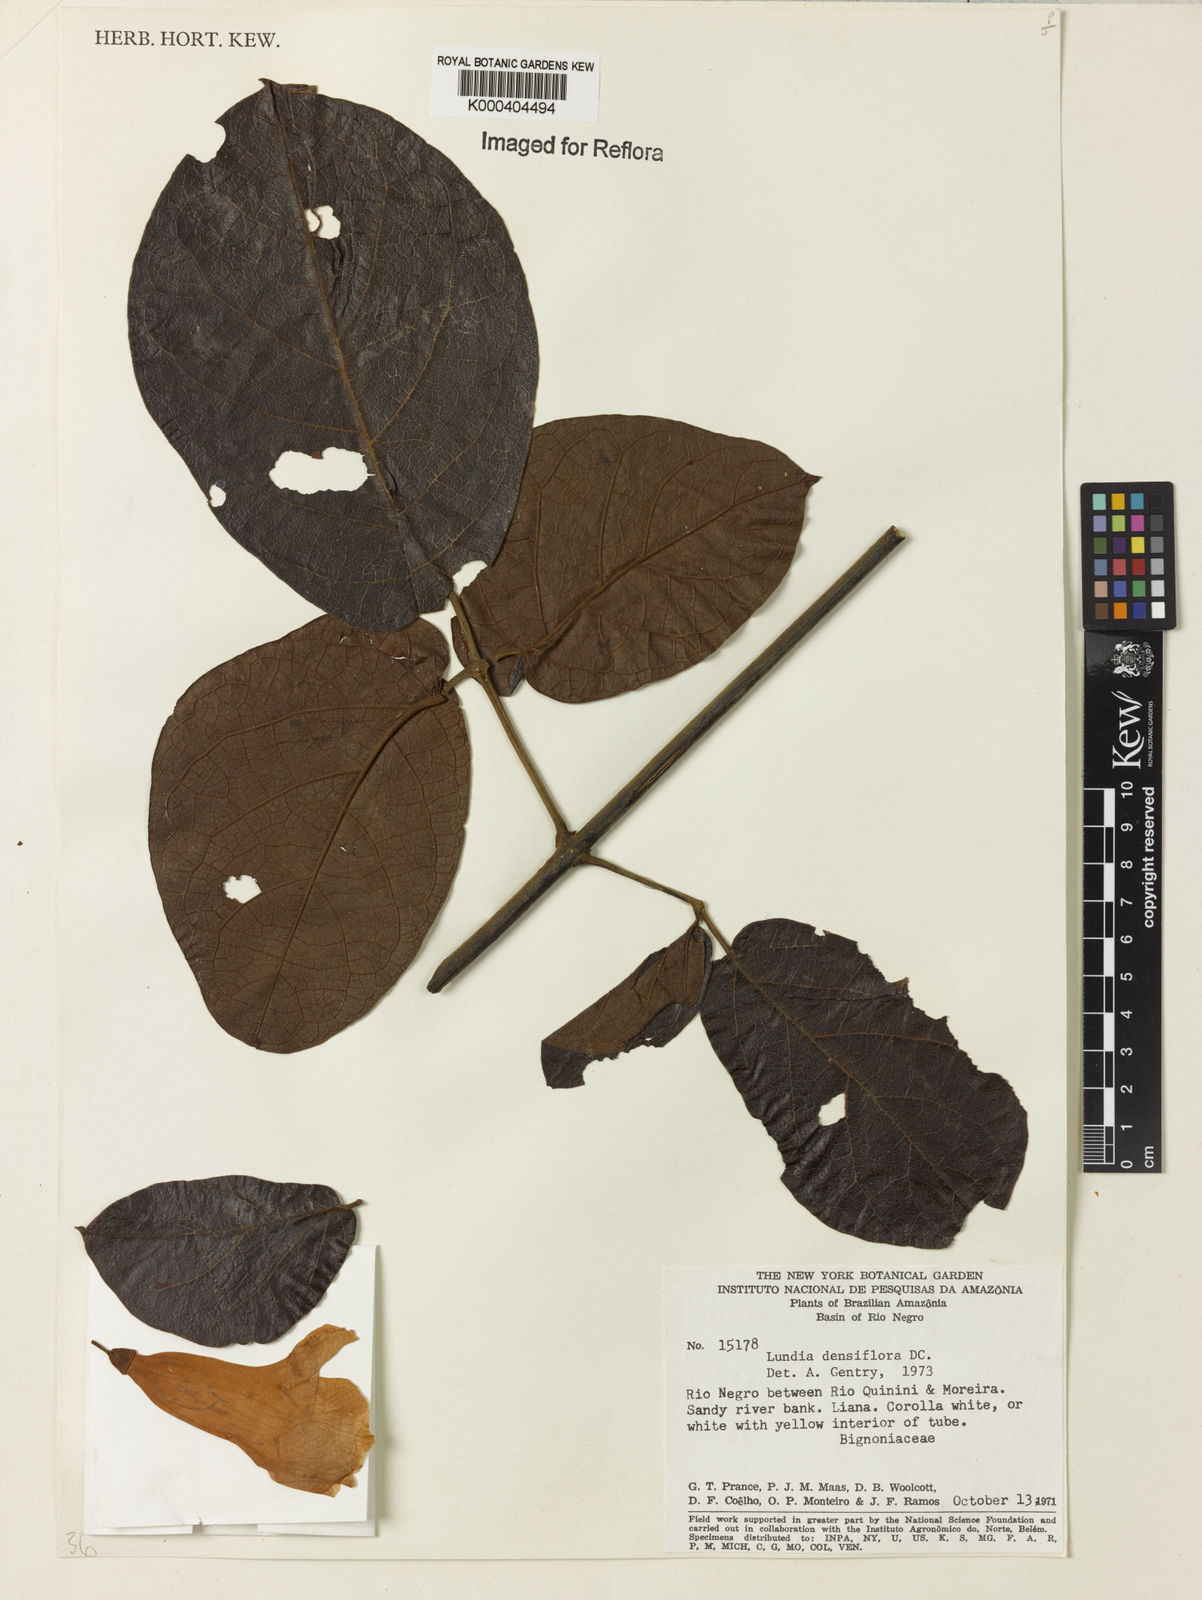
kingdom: Plantae
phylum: Tracheophyta
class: Magnoliopsida
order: Lamiales
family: Bignoniaceae
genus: Lundia
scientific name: Lundia densiflora
